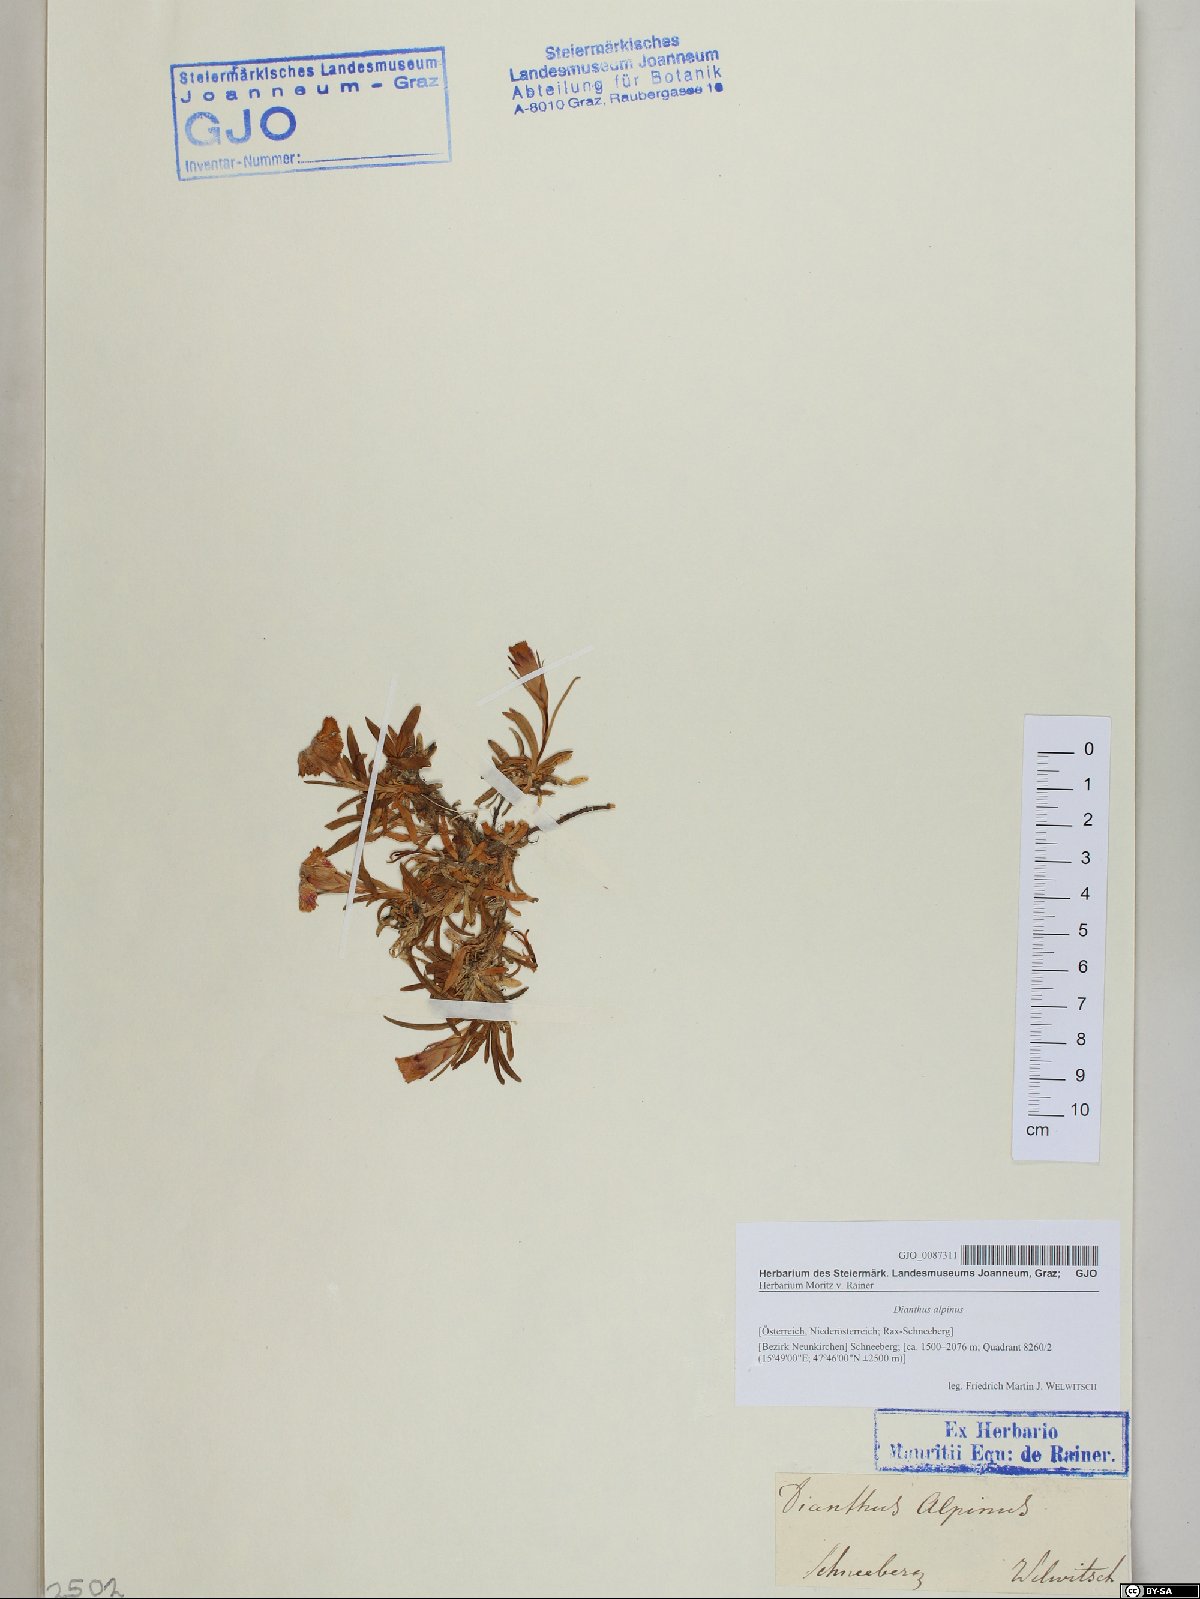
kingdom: Plantae
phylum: Tracheophyta
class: Magnoliopsida
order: Caryophyllales
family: Caryophyllaceae
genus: Dianthus
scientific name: Dianthus alpinus
